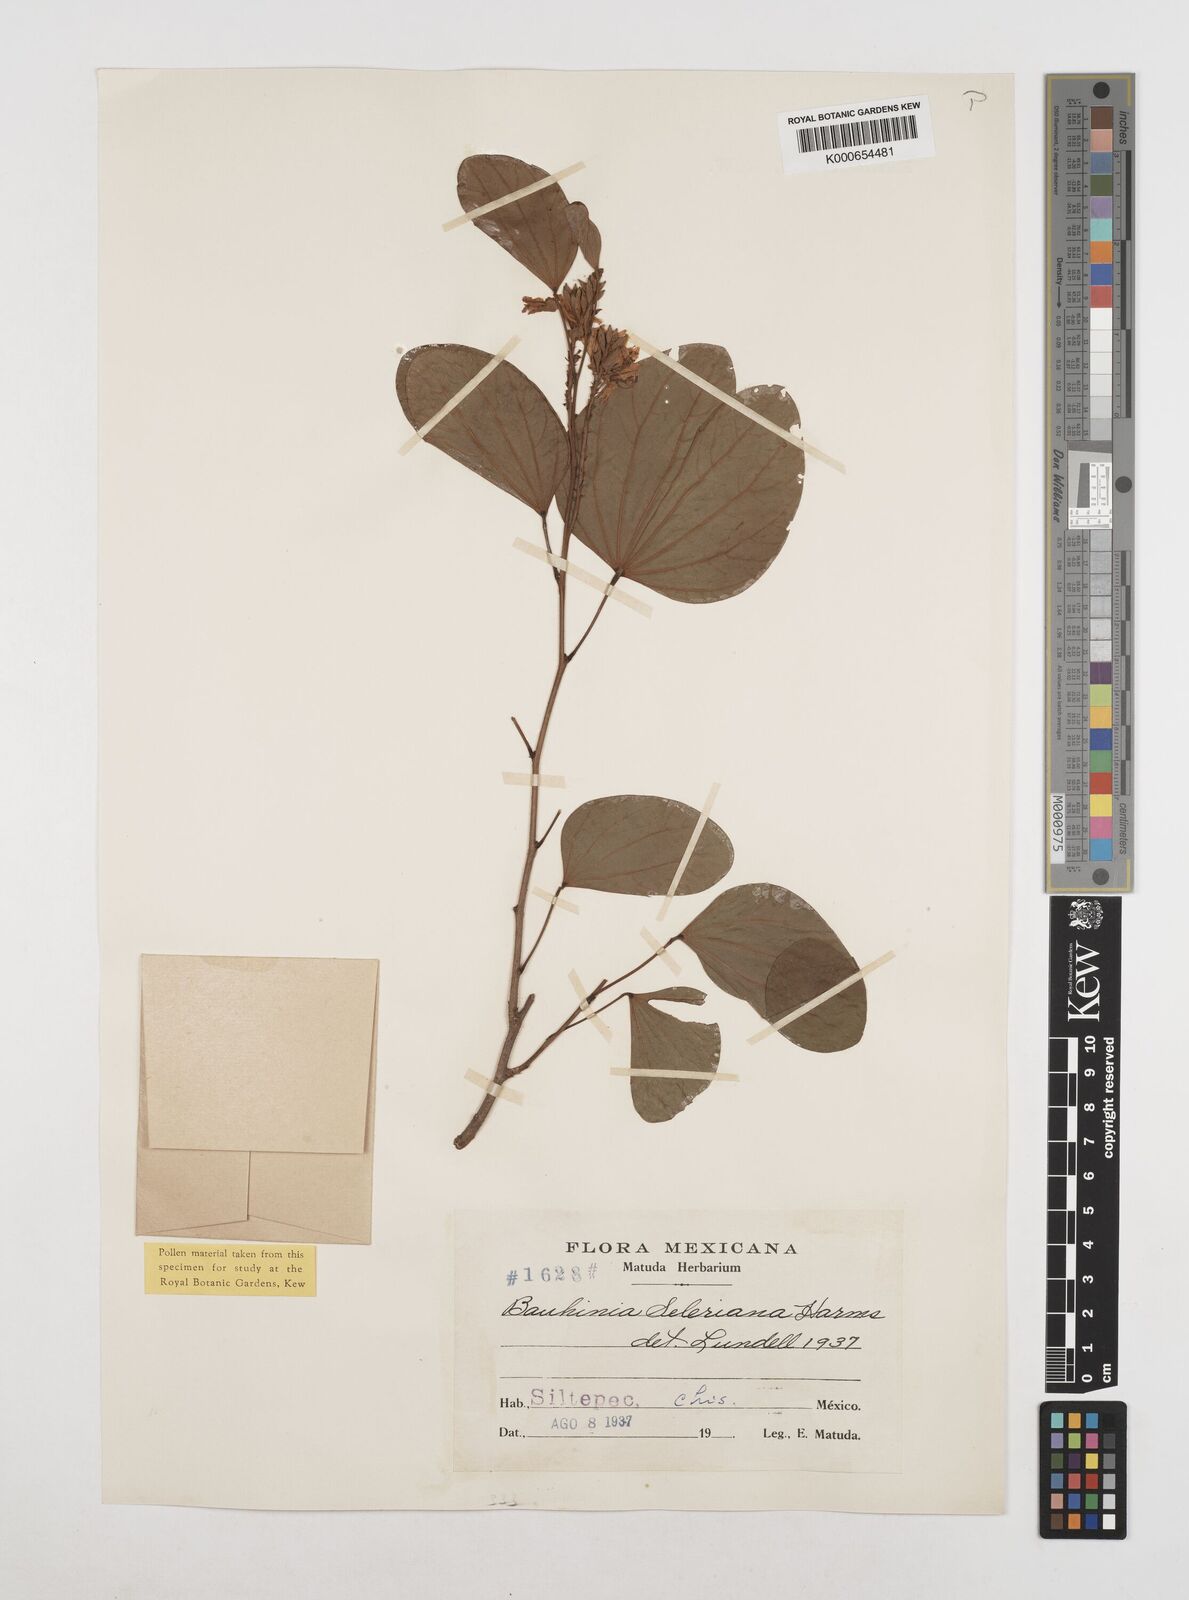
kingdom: Plantae
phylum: Tracheophyta
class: Magnoliopsida
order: Fabales
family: Fabaceae
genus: Bauhinia
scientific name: Bauhinia seleriana
